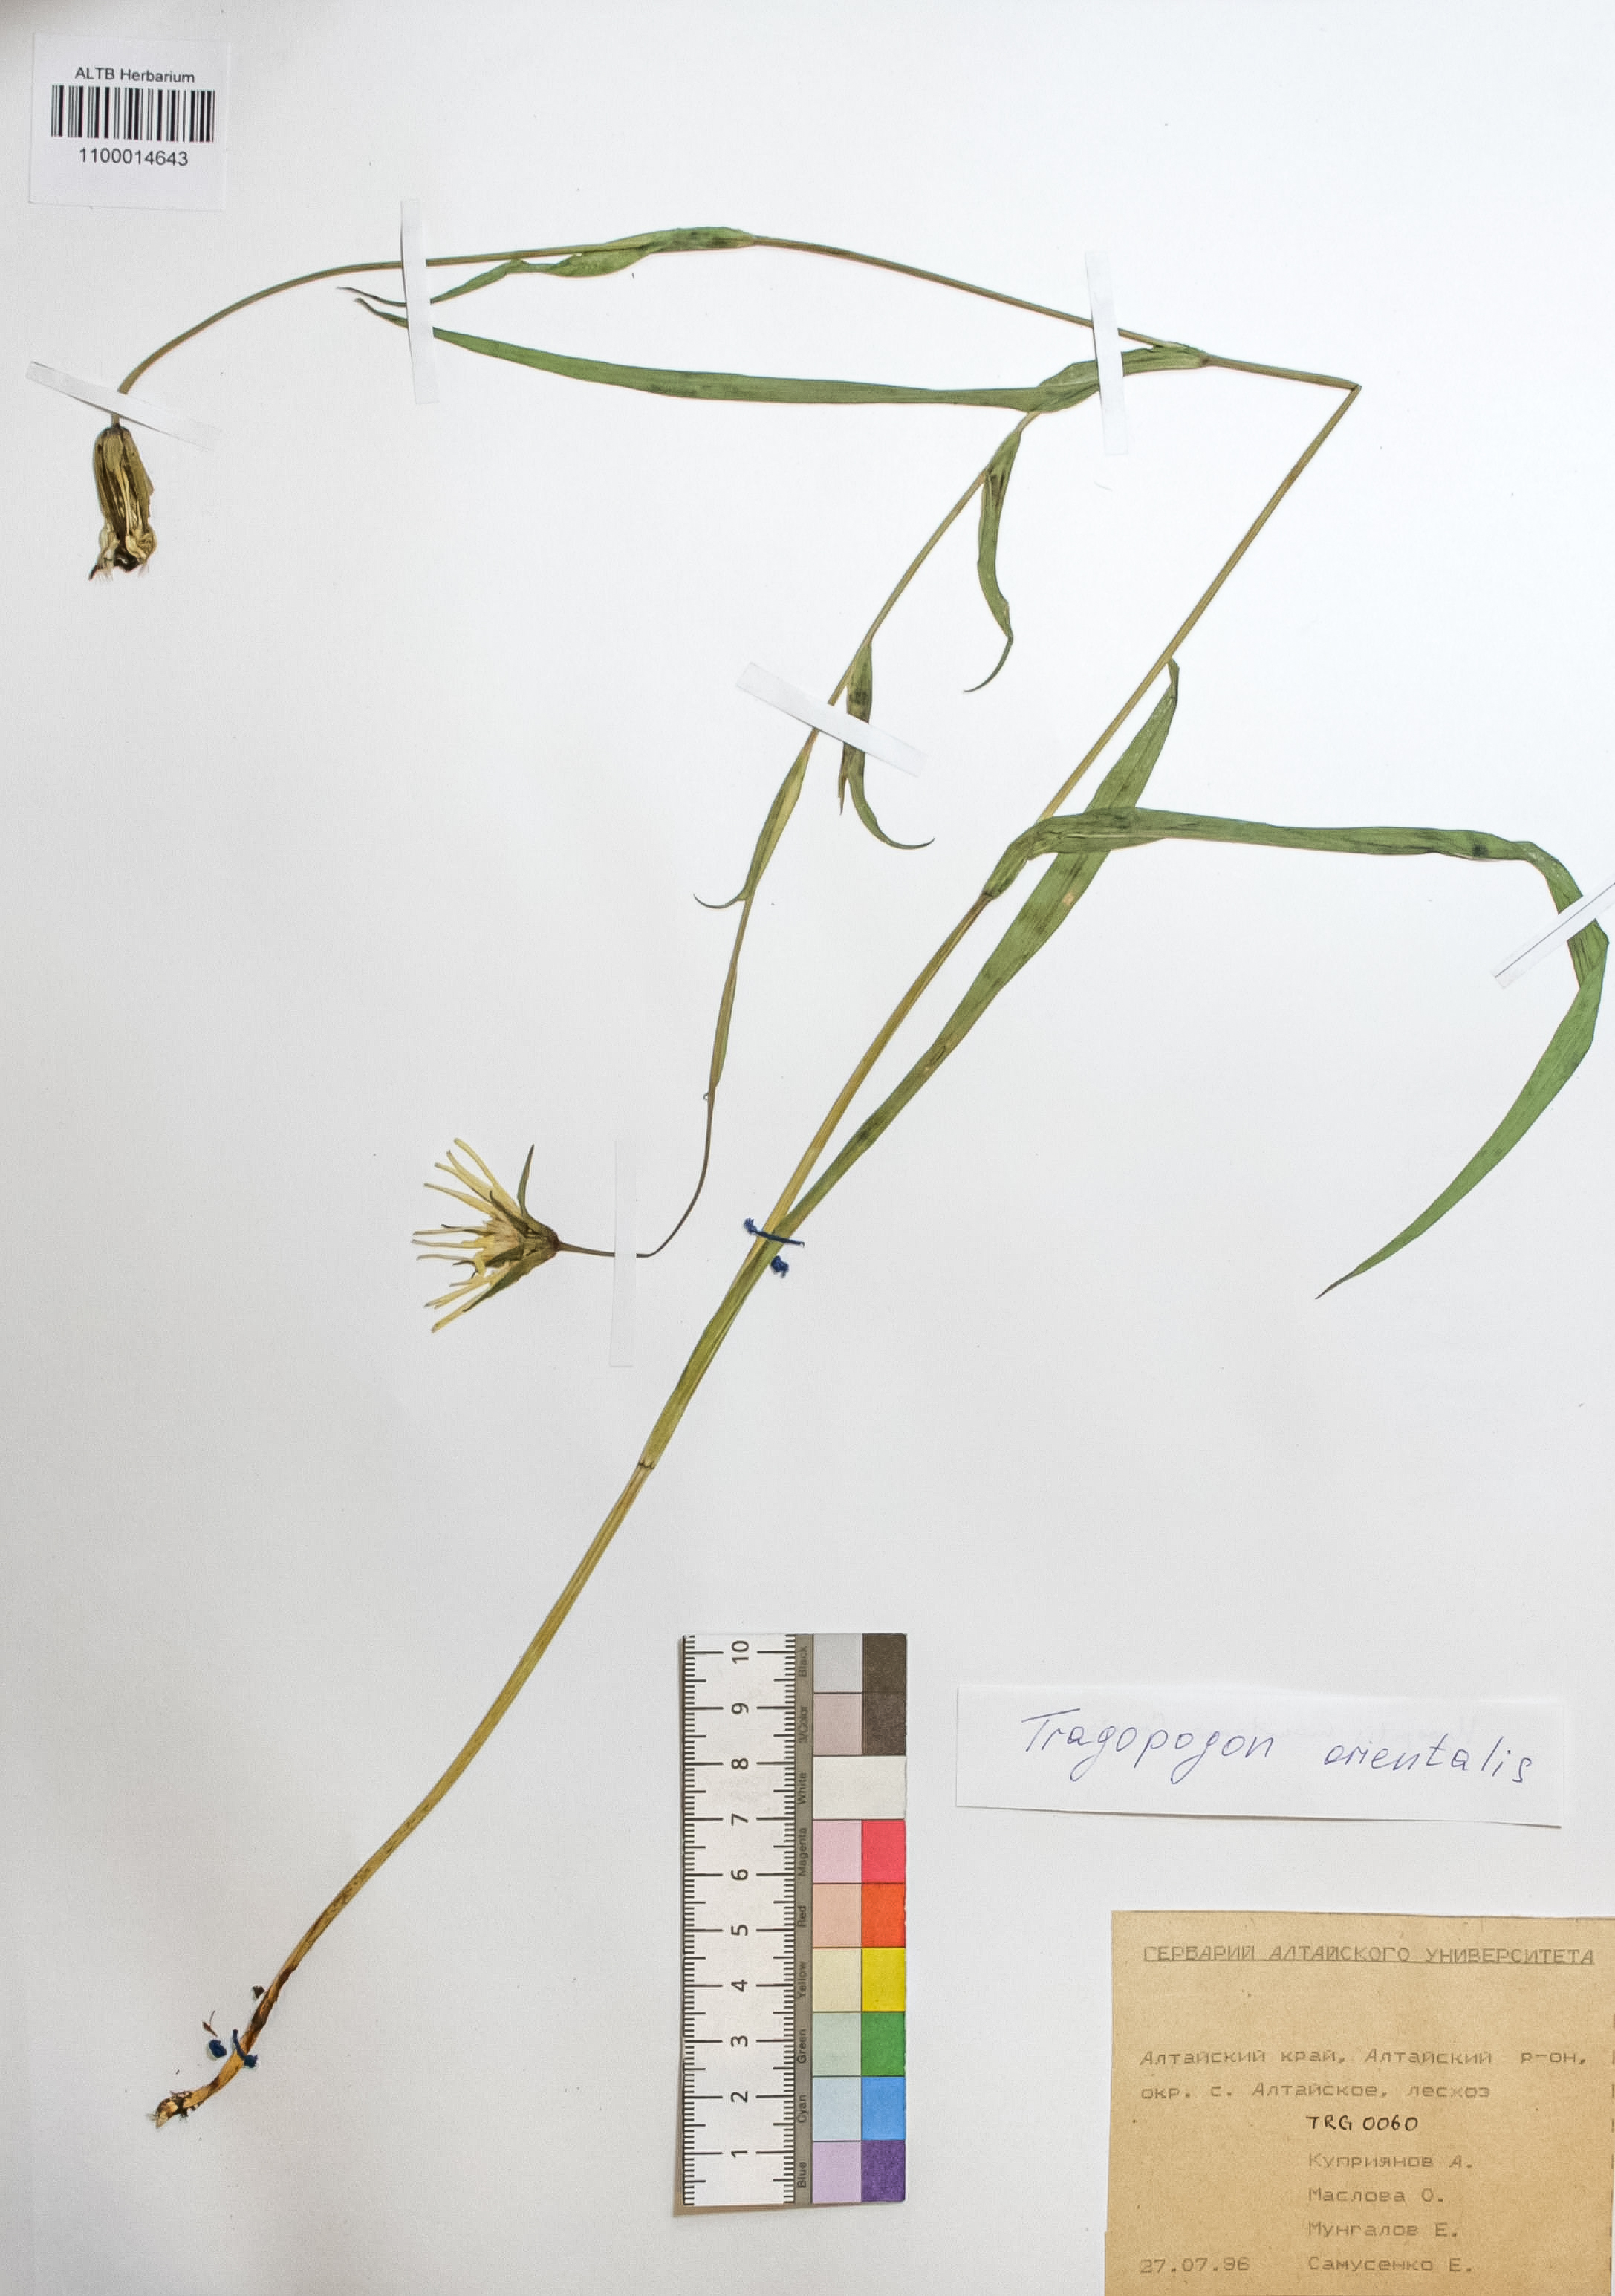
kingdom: Plantae
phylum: Tracheophyta
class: Magnoliopsida
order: Asterales
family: Asteraceae
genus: Tragopogon
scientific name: Tragopogon orientalis
